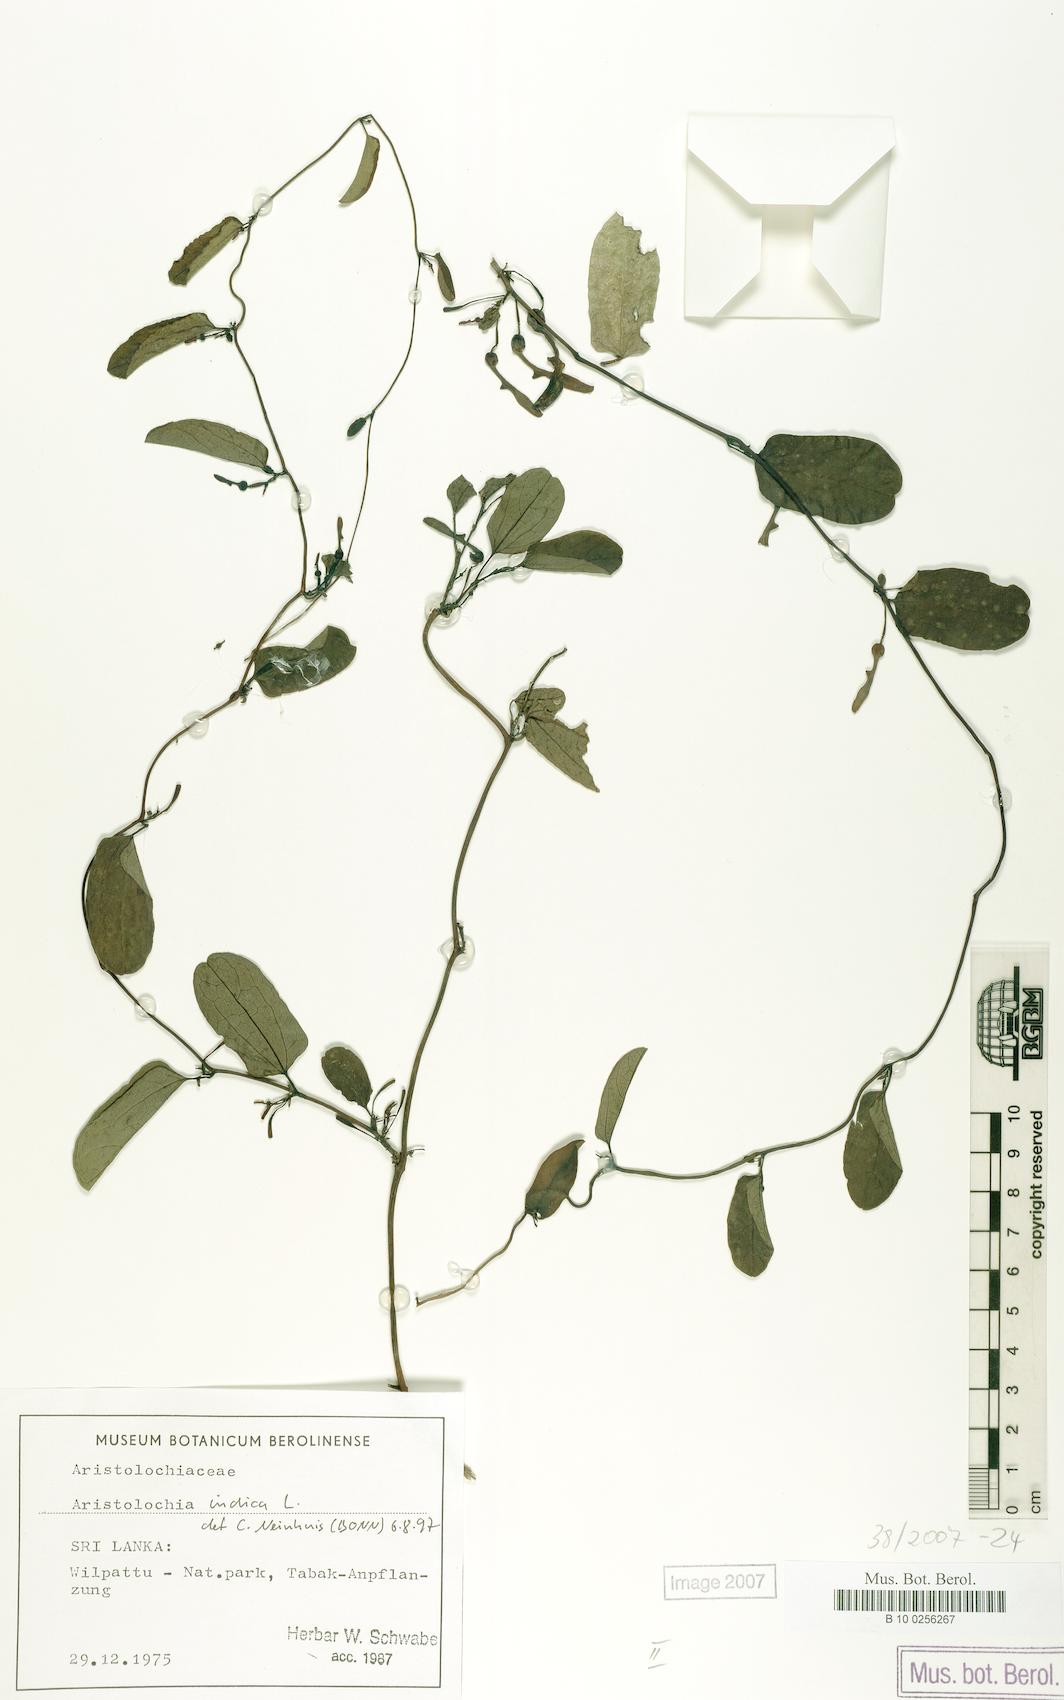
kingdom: Plantae
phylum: Tracheophyta
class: Magnoliopsida
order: Piperales
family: Aristolochiaceae
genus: Aristolochia
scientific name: Aristolochia indica
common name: Indian birthwort
